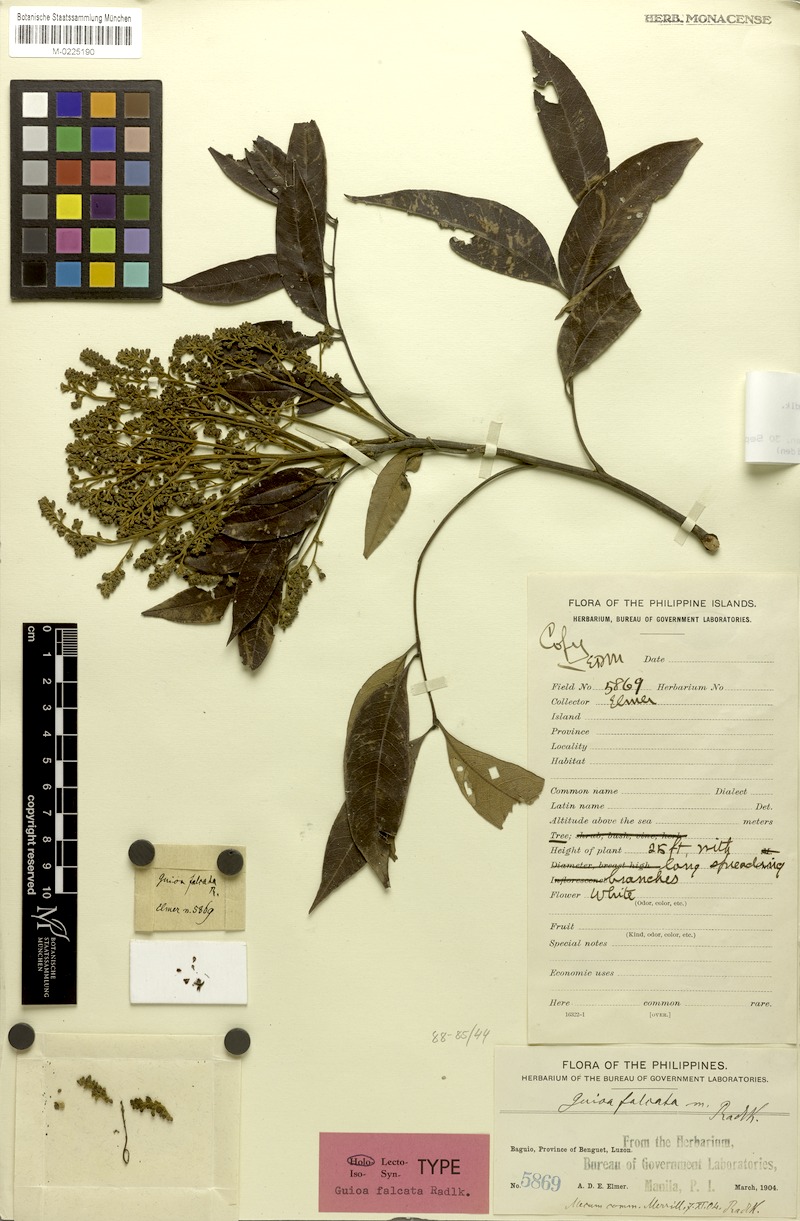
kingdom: Plantae
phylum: Tracheophyta
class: Magnoliopsida
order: Sapindales
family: Sapindaceae
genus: Guioa
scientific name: Guioa myriadenia
